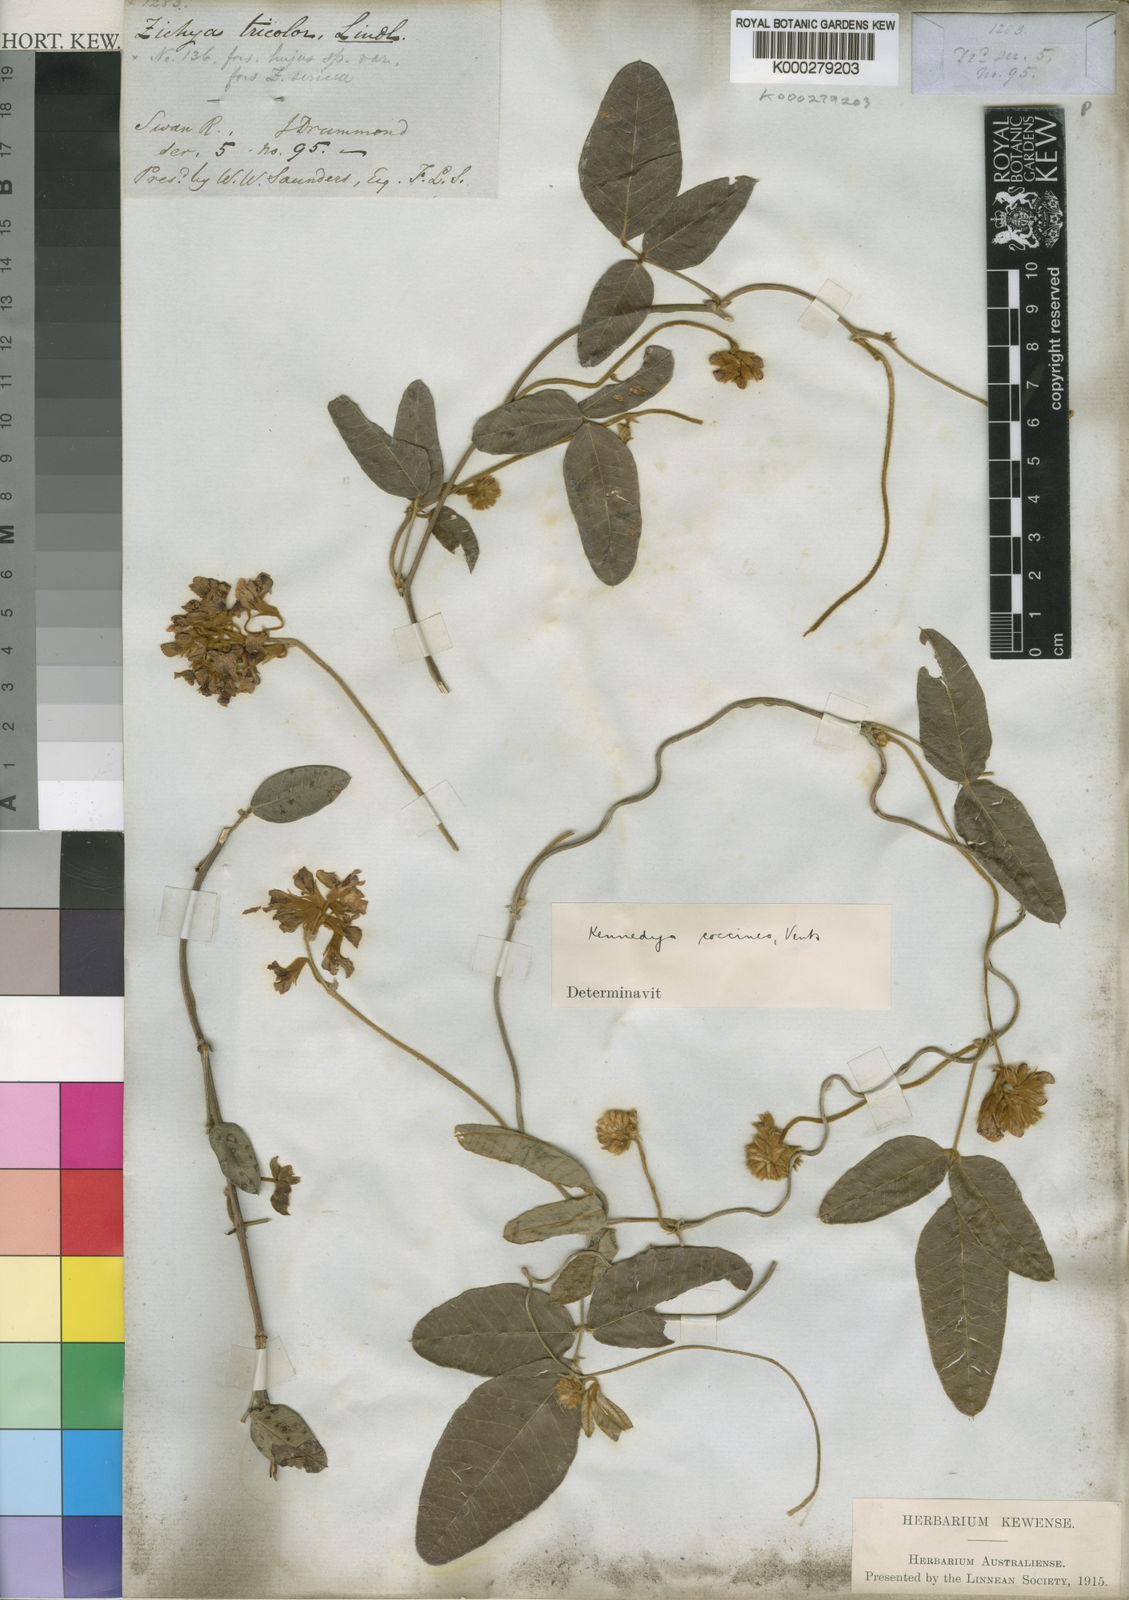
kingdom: Plantae
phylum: Tracheophyta
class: Magnoliopsida
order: Fabales
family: Fabaceae
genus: Kennedia
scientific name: Kennedia coccinea
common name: Coralvine
